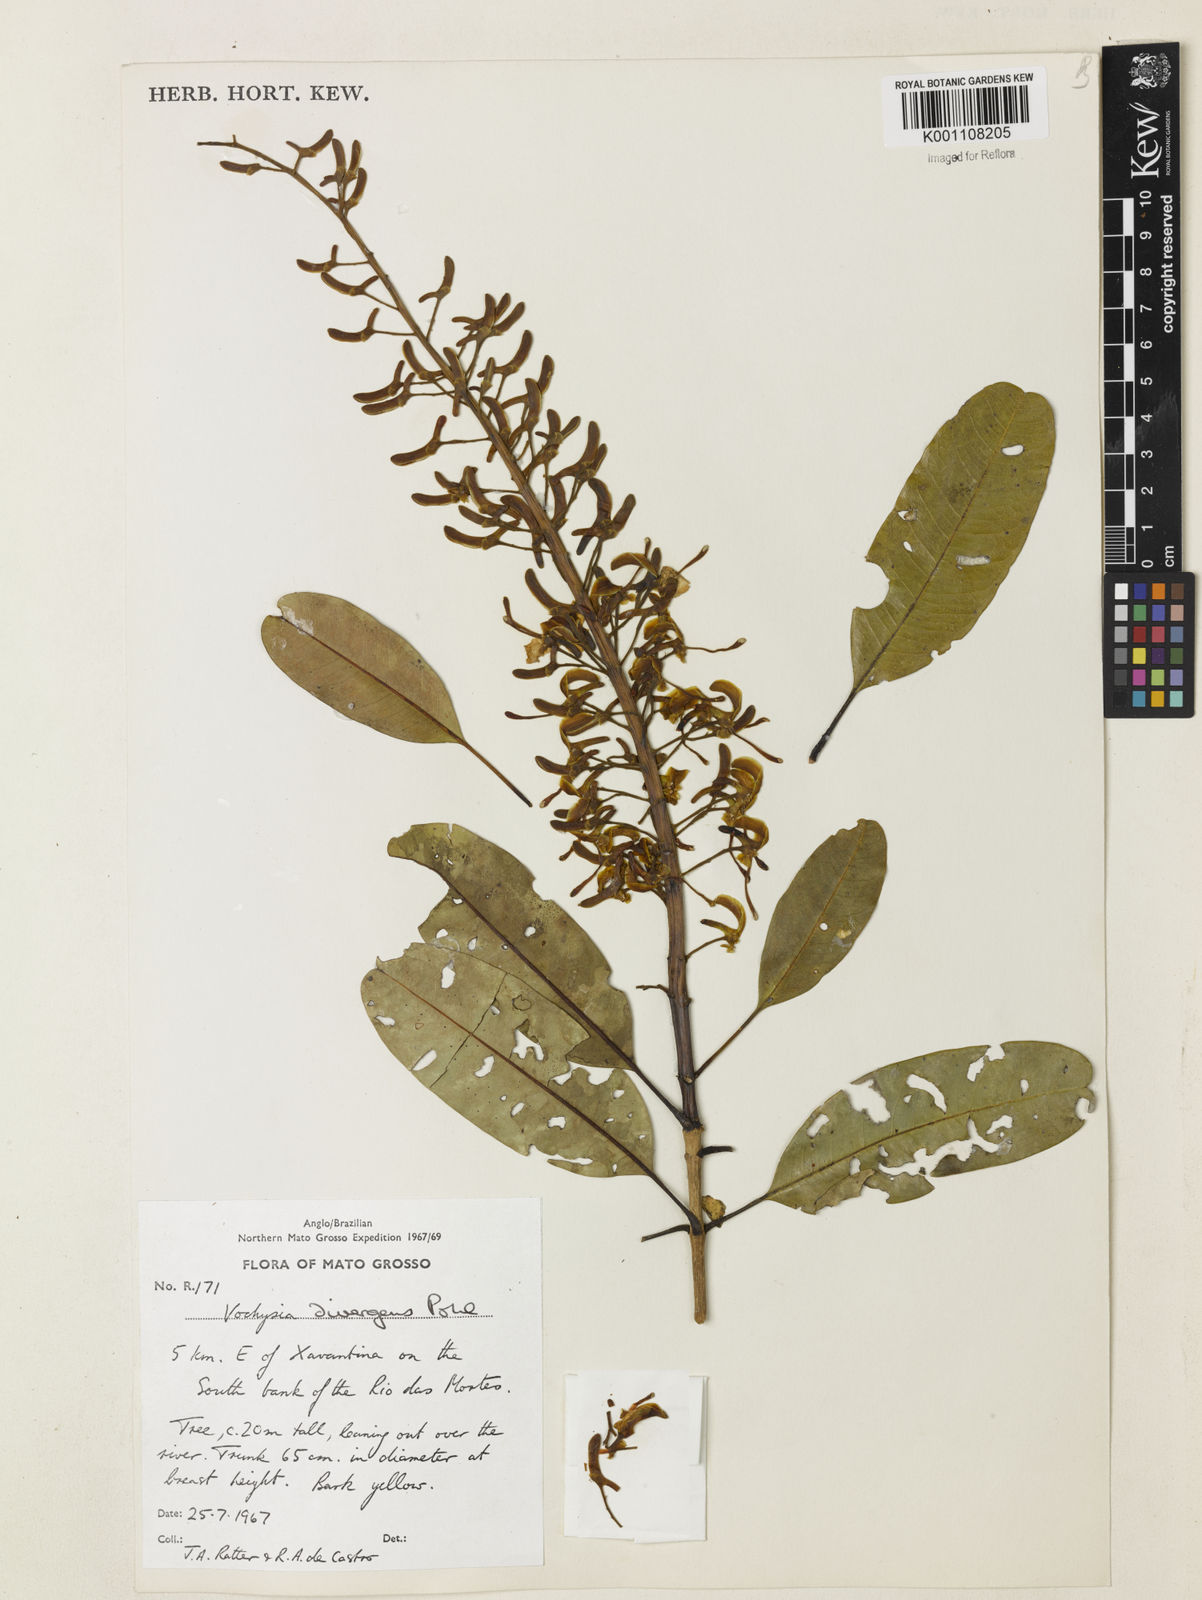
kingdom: Plantae
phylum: Tracheophyta
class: Magnoliopsida
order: Myrtales
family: Vochysiaceae
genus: Vochysia
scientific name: Vochysia divergens
